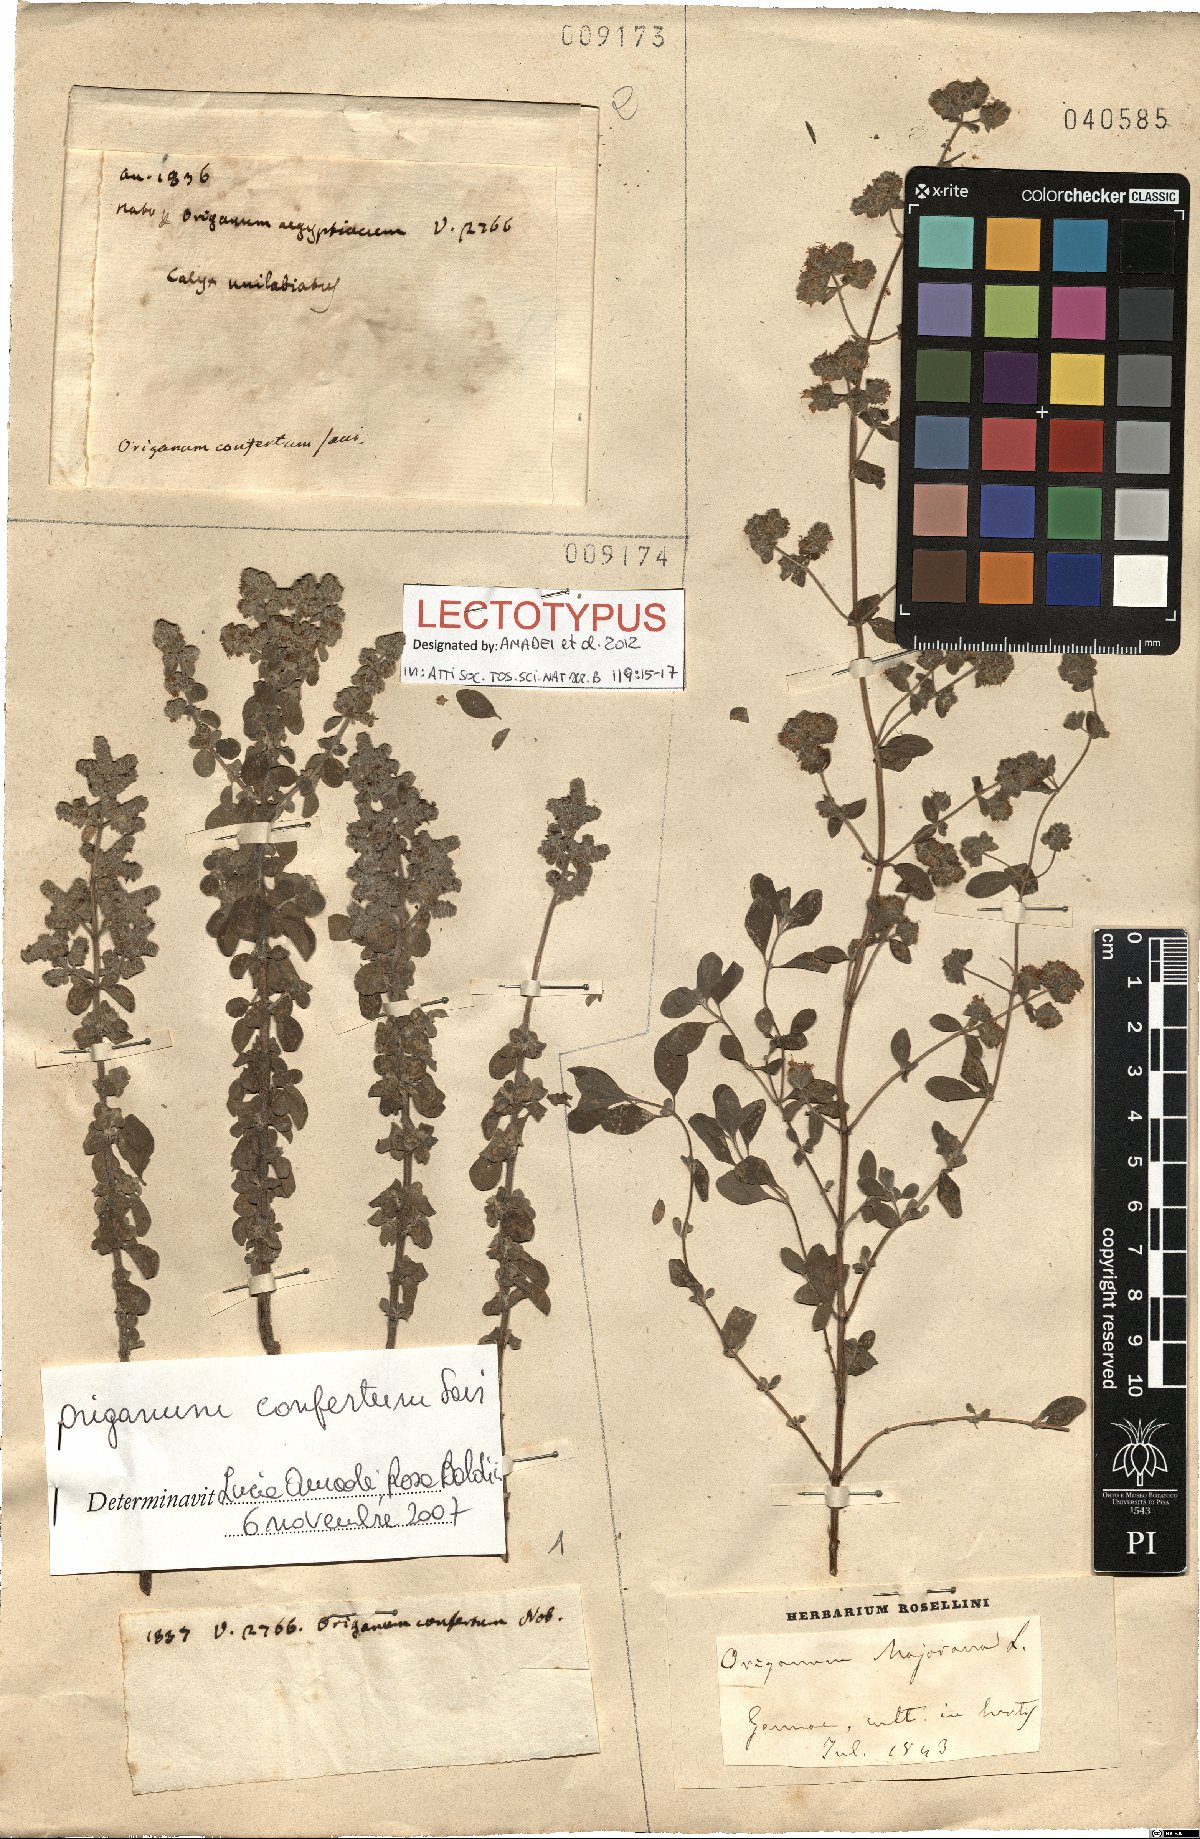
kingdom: Plantae
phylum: Tracheophyta
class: Magnoliopsida
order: Lamiales
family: Lamiaceae
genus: Origanum
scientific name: Origanum majorana
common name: Sweet marjoram
